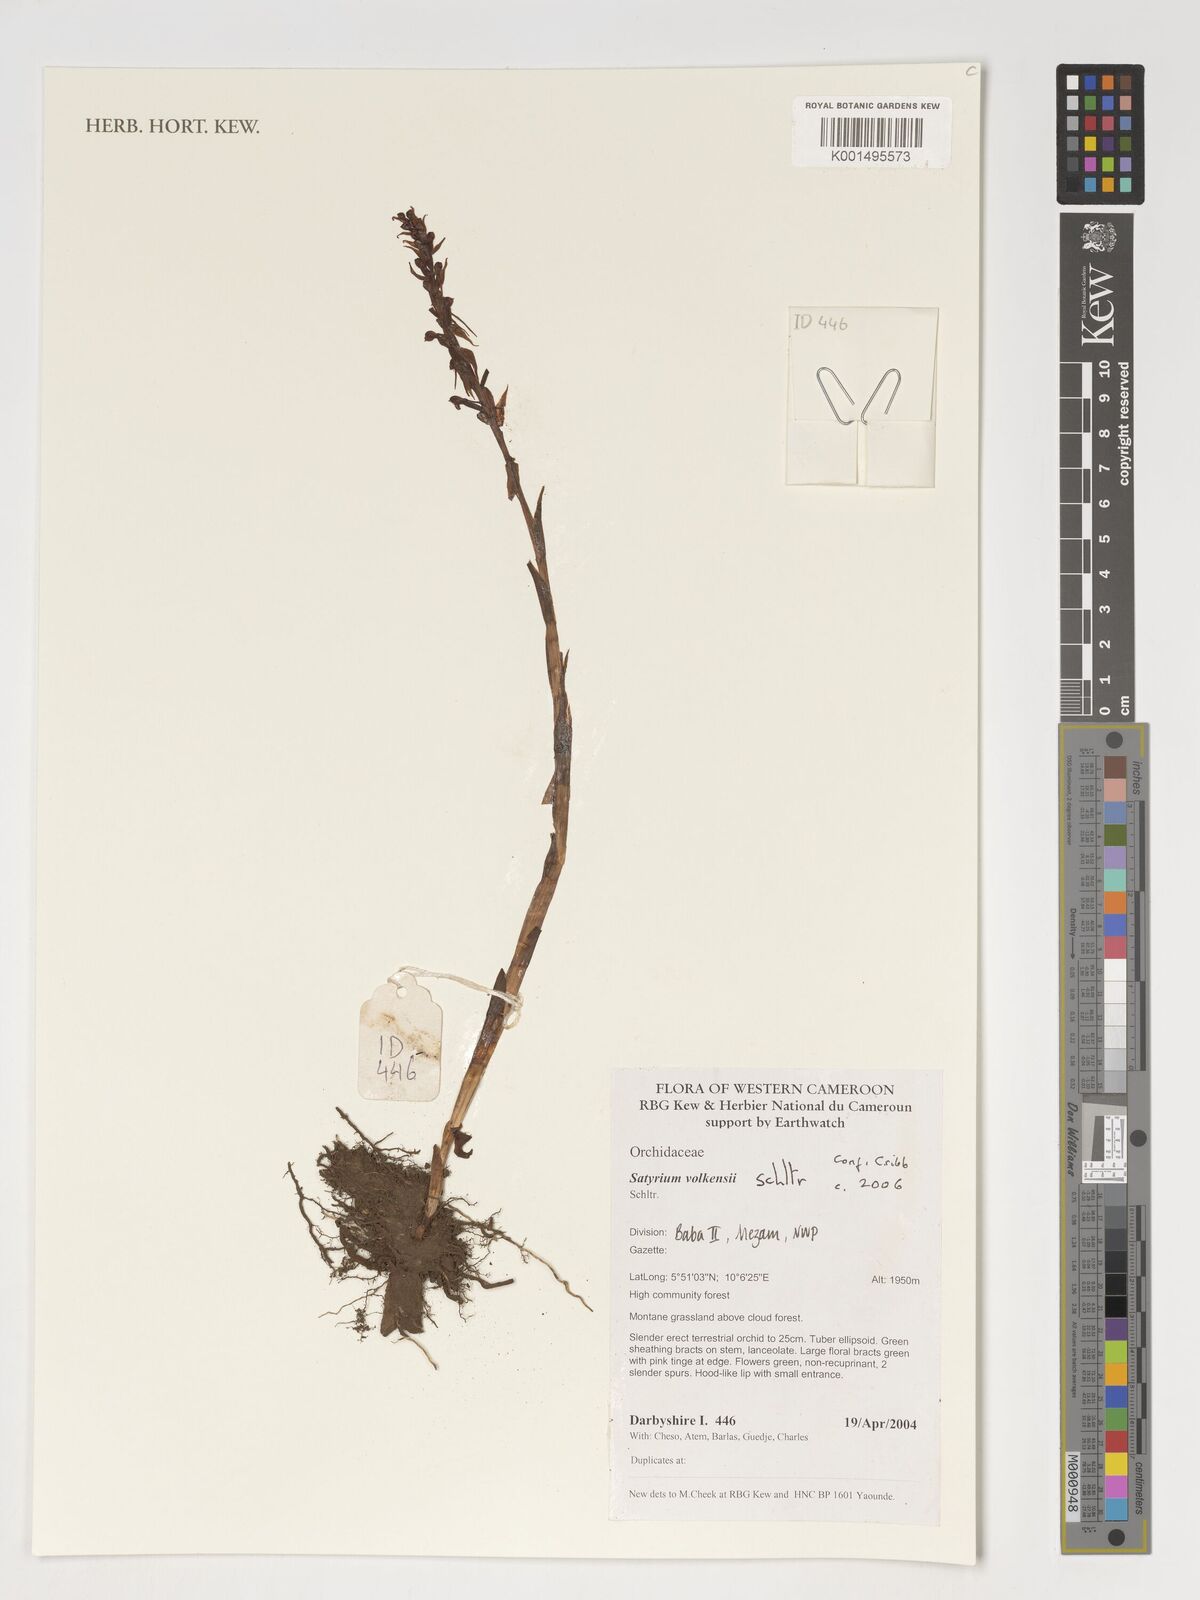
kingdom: Plantae
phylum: Tracheophyta
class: Liliopsida
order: Asparagales
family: Orchidaceae
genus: Satyrium
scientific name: Satyrium volkensii
